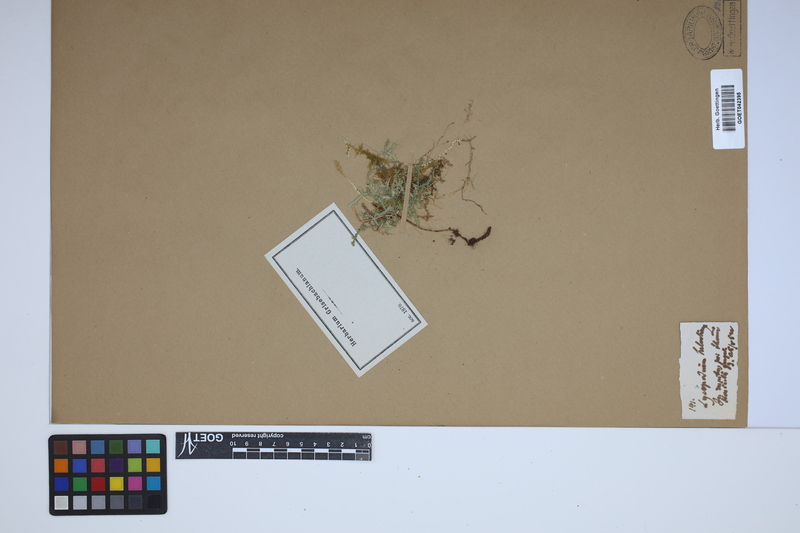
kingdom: Plantae
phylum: Tracheophyta
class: Lycopodiopsida
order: Selaginellales
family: Selaginellaceae
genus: Selaginella
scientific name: Selaginella helvetica
